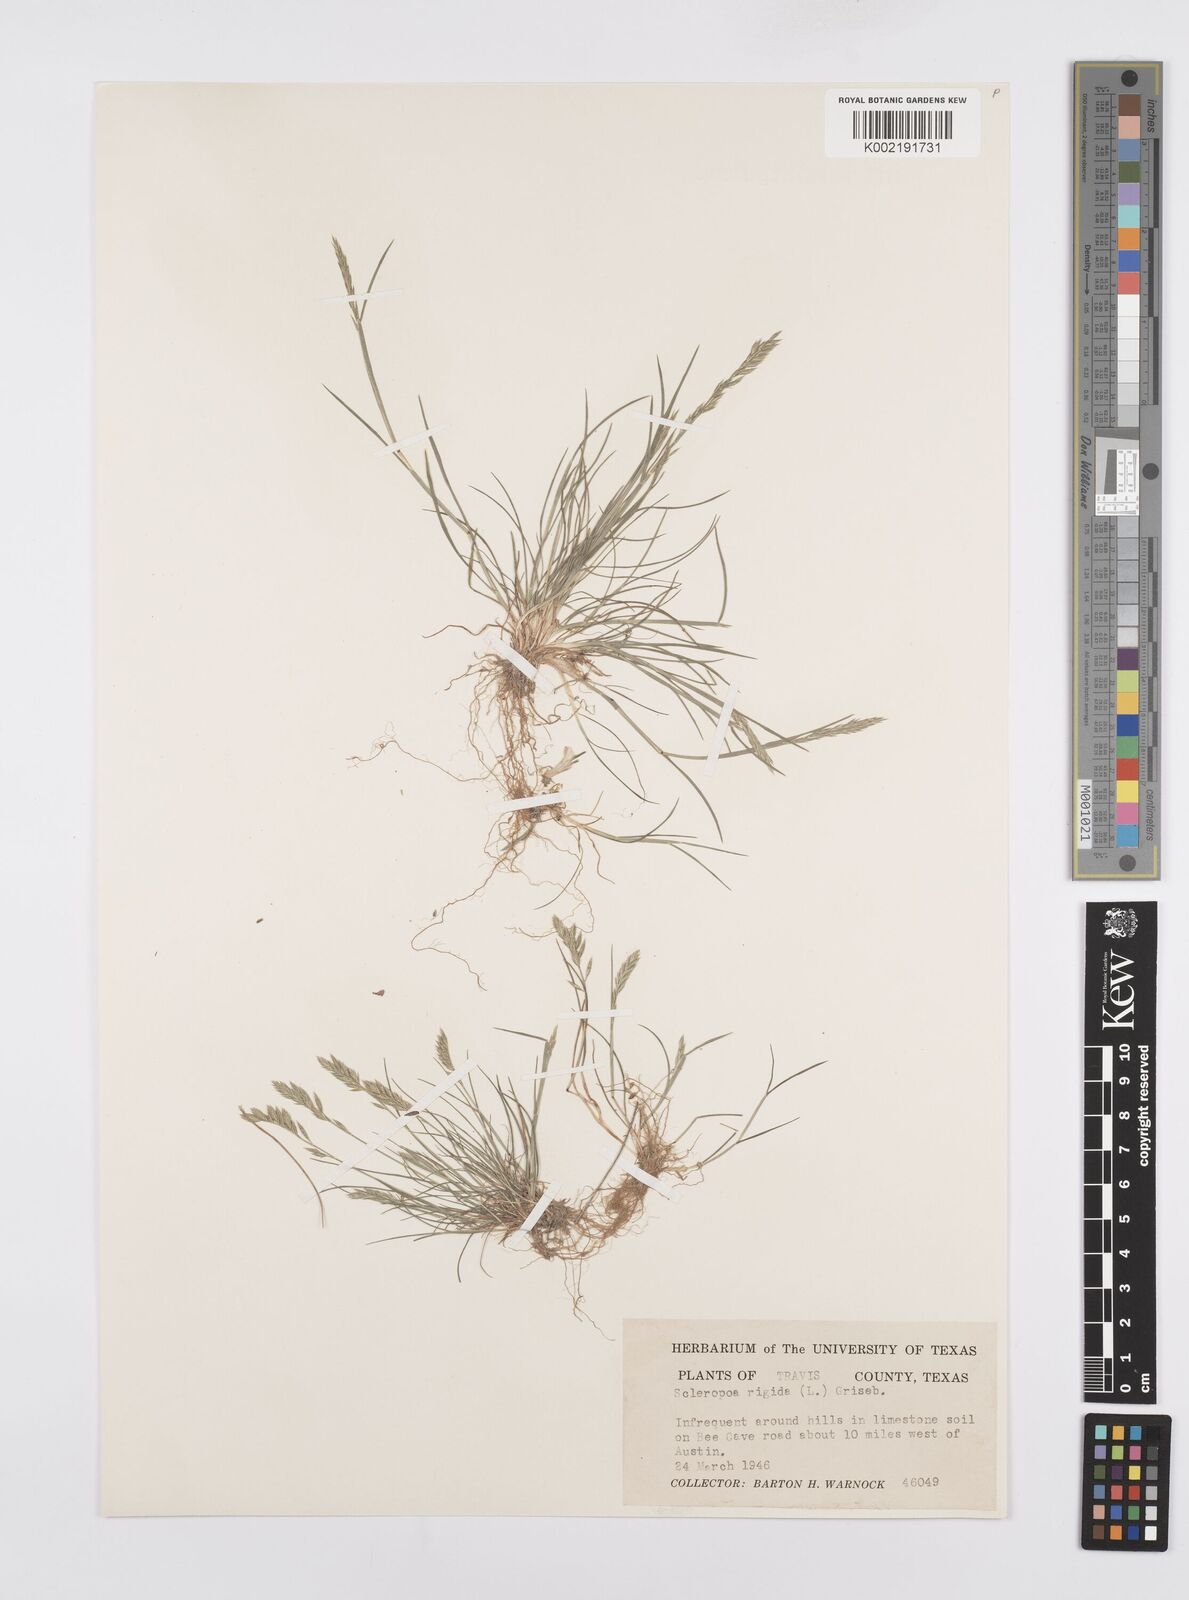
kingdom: Plantae
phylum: Tracheophyta
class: Liliopsida
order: Poales
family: Poaceae
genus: Catapodium
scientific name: Catapodium rigidum
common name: Fern-grass
